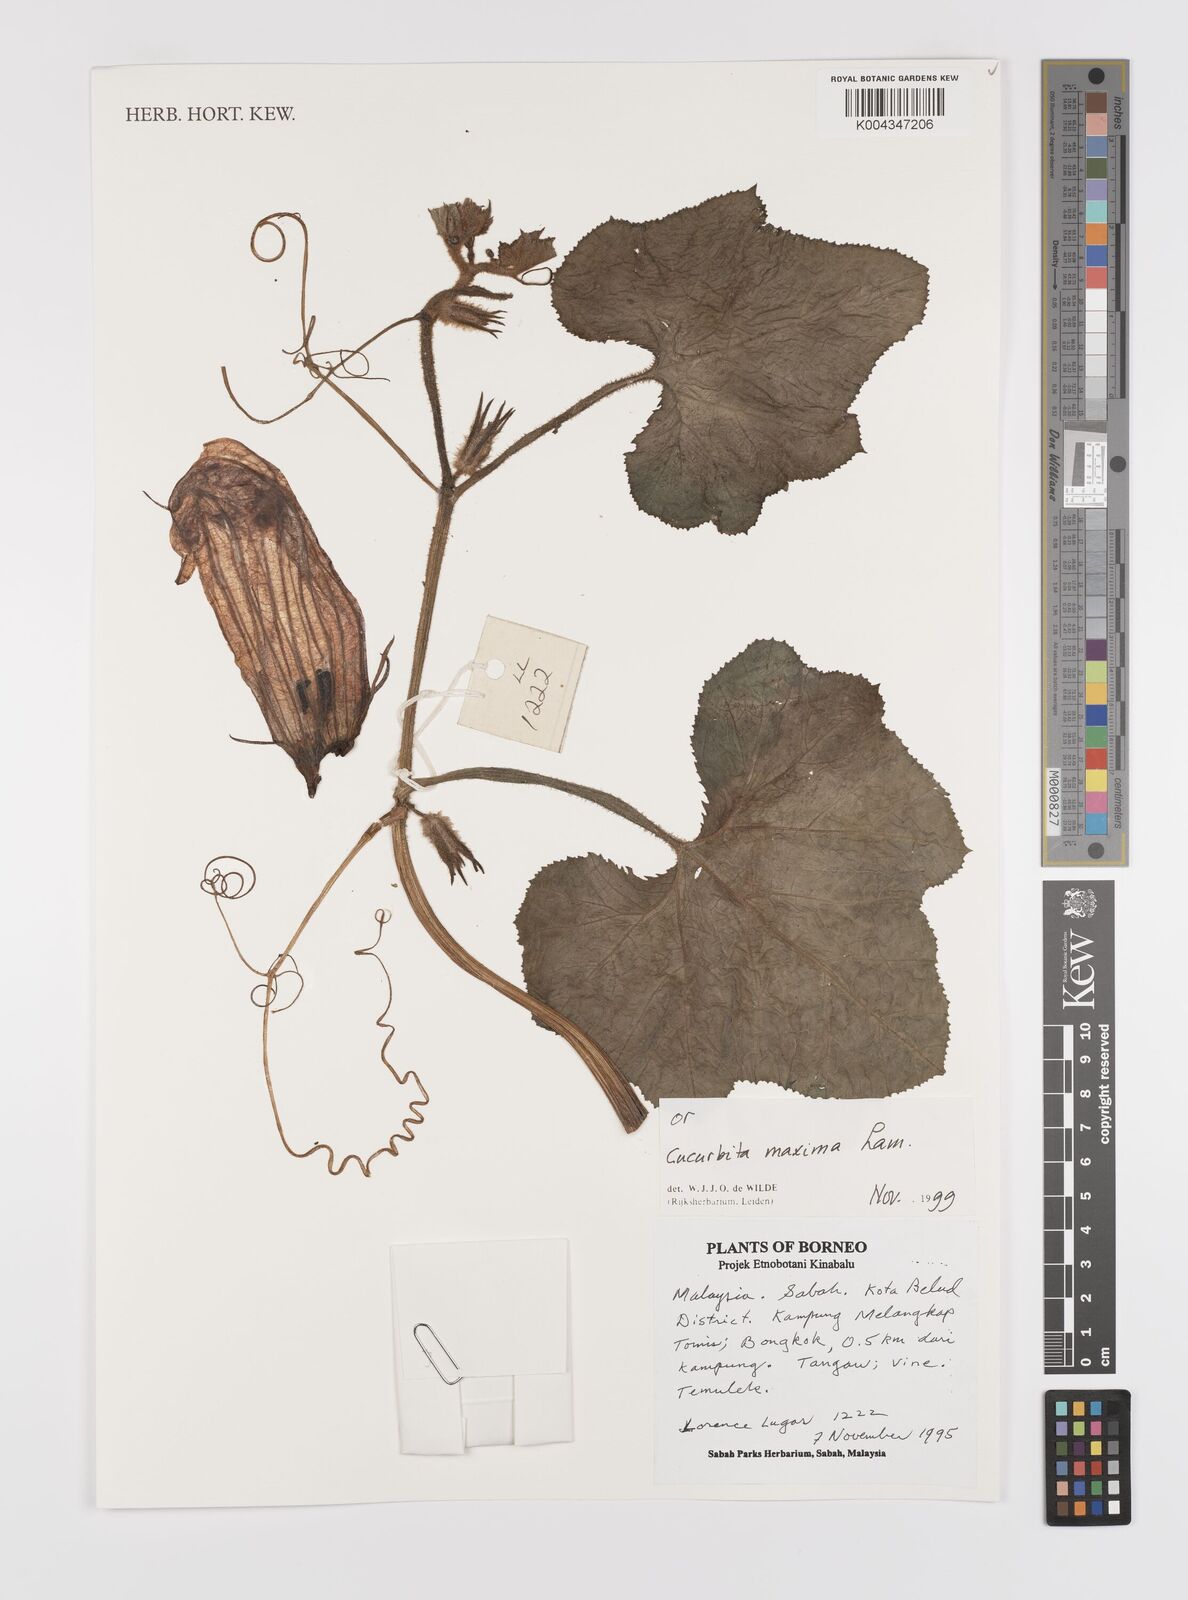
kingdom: Plantae
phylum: Tracheophyta
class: Magnoliopsida
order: Cucurbitales
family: Cucurbitaceae
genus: Cucurbita
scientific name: Cucurbita maxima
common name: Pumpkin
